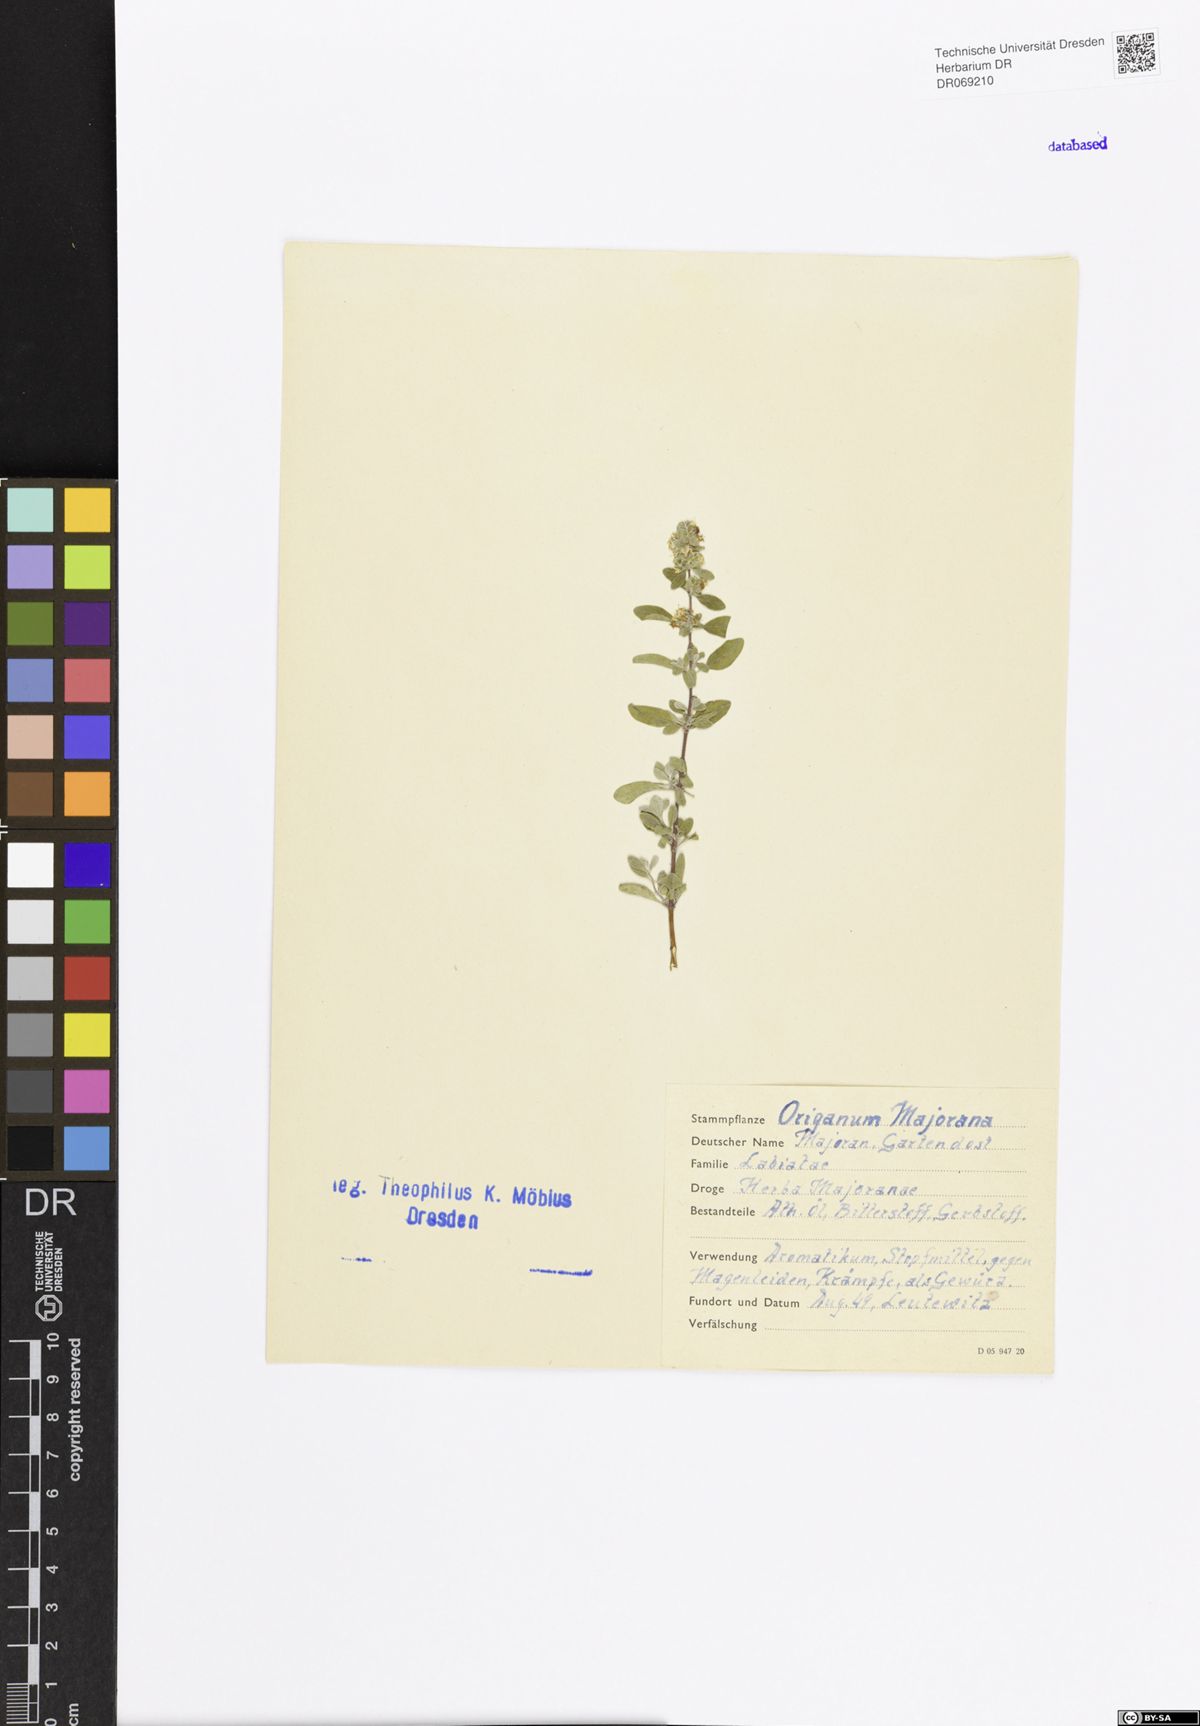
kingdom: Plantae
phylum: Tracheophyta
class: Magnoliopsida
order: Lamiales
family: Lamiaceae
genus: Origanum
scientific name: Origanum majorana
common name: Sweet marjoram
